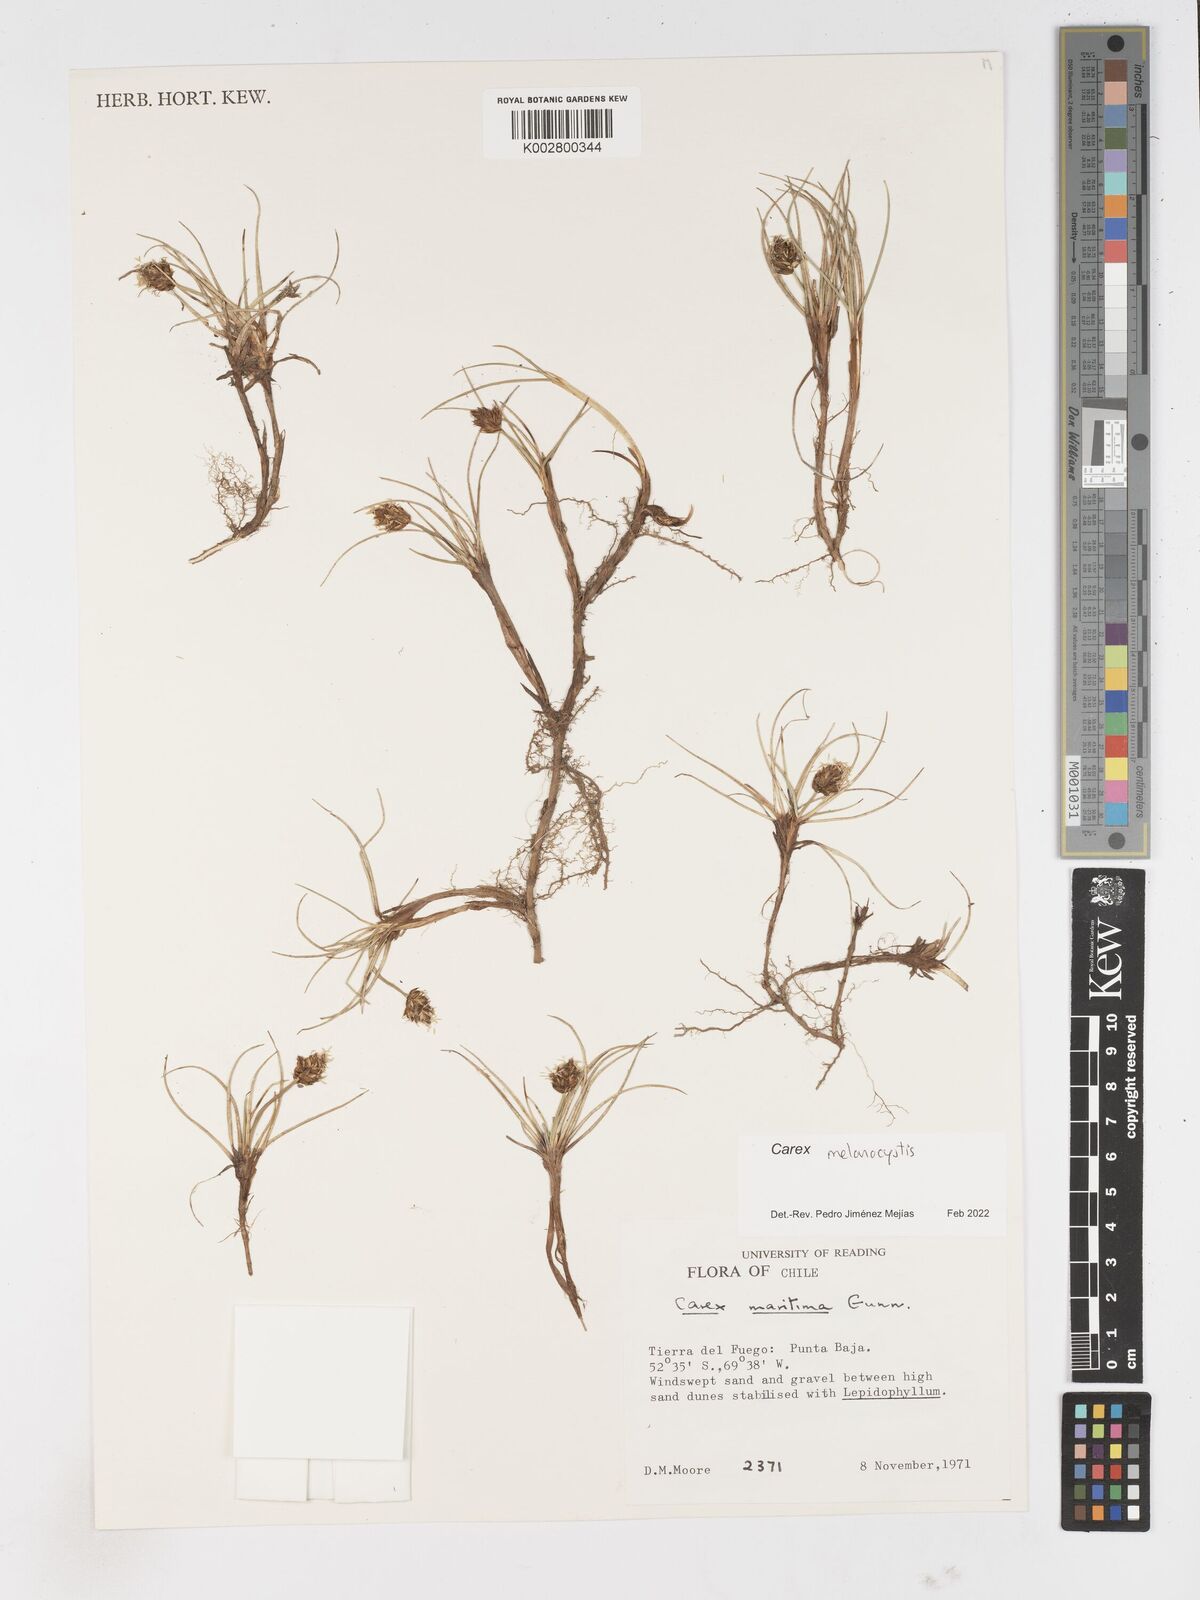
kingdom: Plantae
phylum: Tracheophyta
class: Liliopsida
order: Poales
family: Cyperaceae
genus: Carex
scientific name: Carex melanocystis
